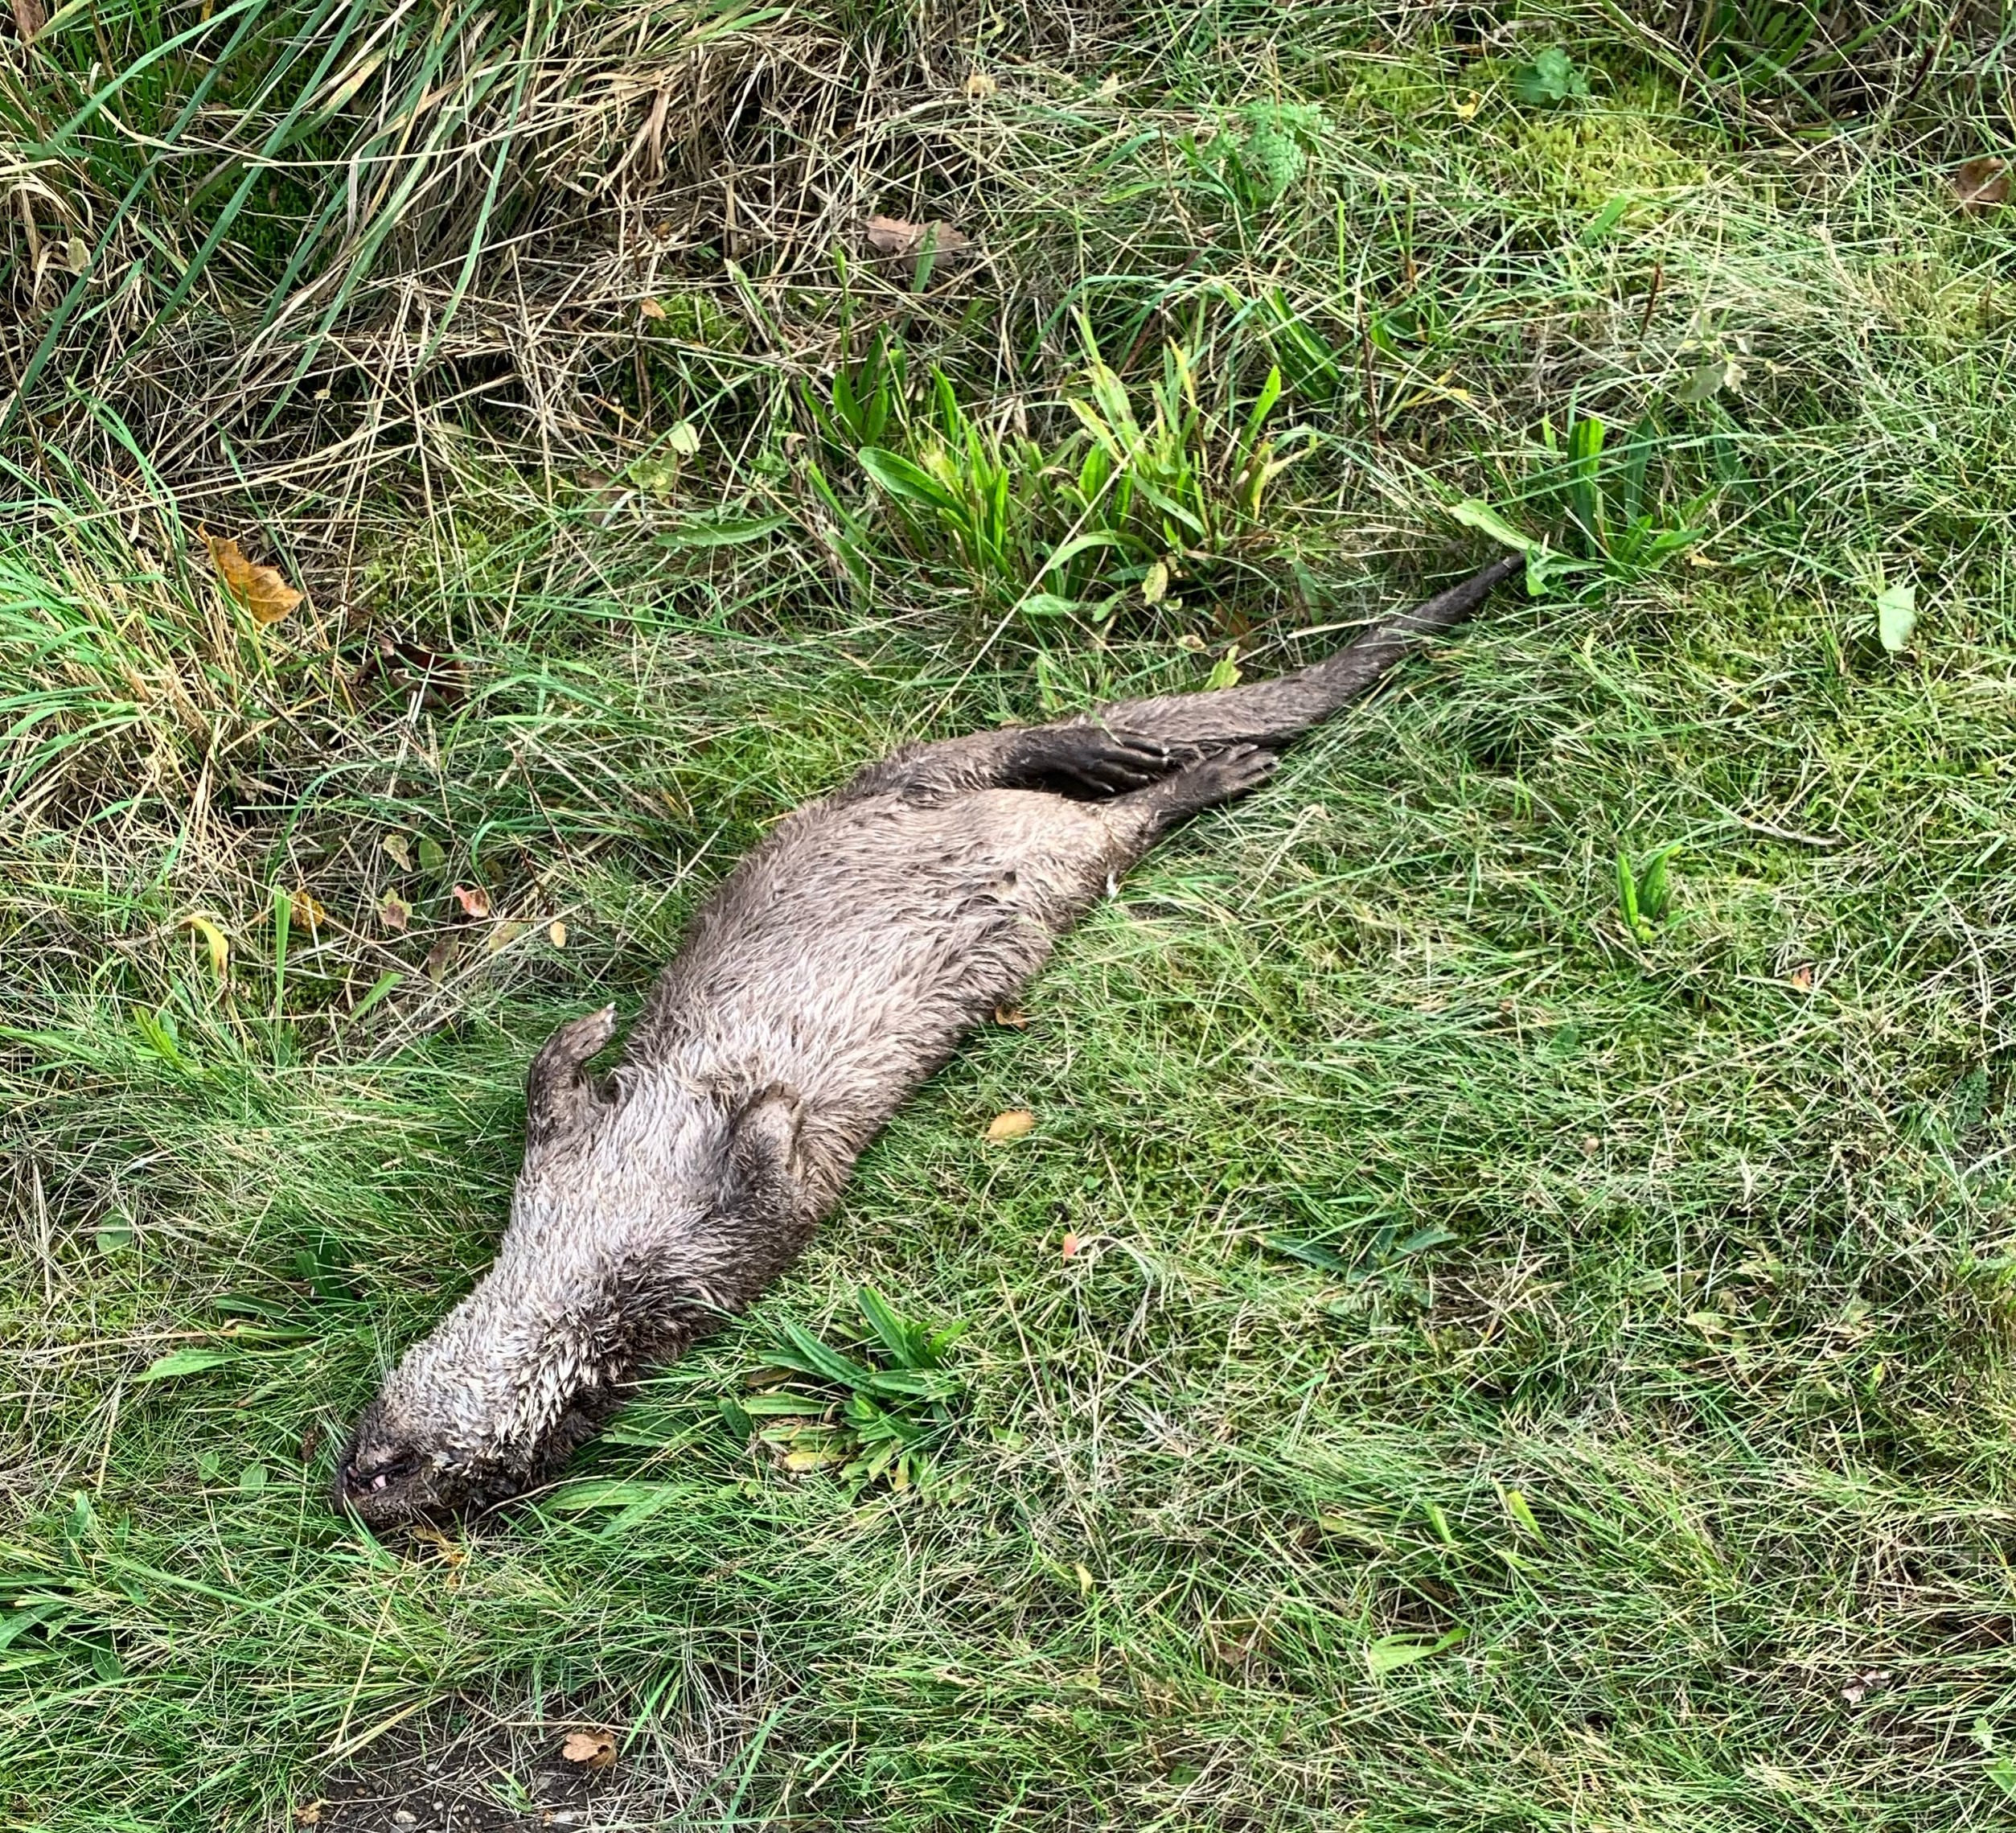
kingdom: Animalia
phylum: Chordata
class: Mammalia
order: Carnivora
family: Mustelidae
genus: Lutra
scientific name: Lutra lutra
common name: Odder
